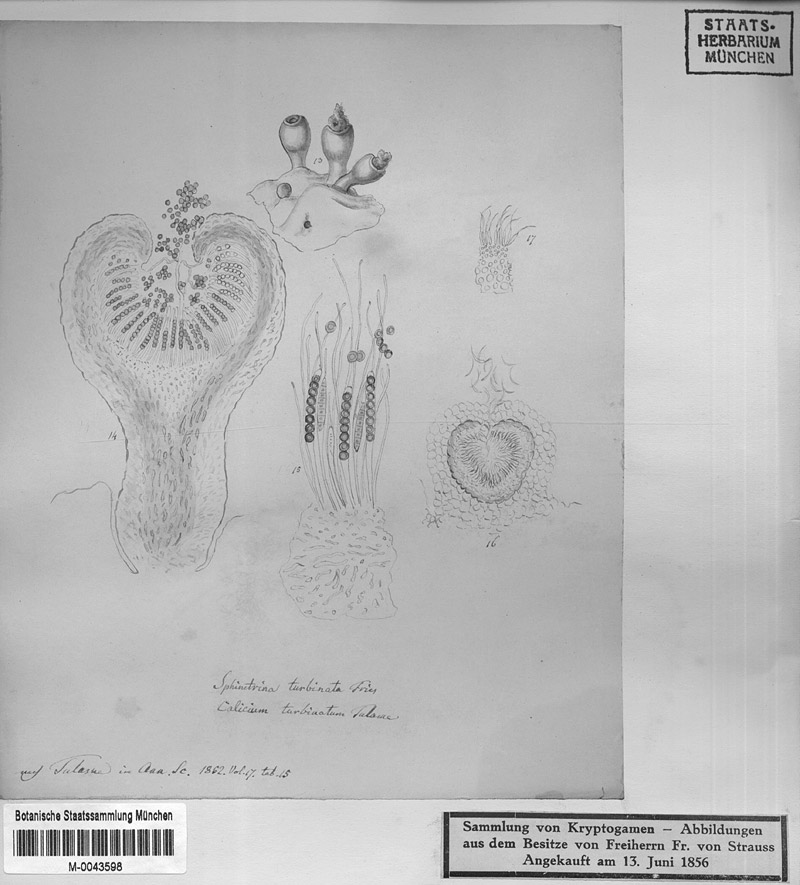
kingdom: Fungi
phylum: Ascomycota
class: Eurotiomycetes
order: Mycocaliciales
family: Sphinctrinaceae
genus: Sphinctrina
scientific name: Sphinctrina turbinata
